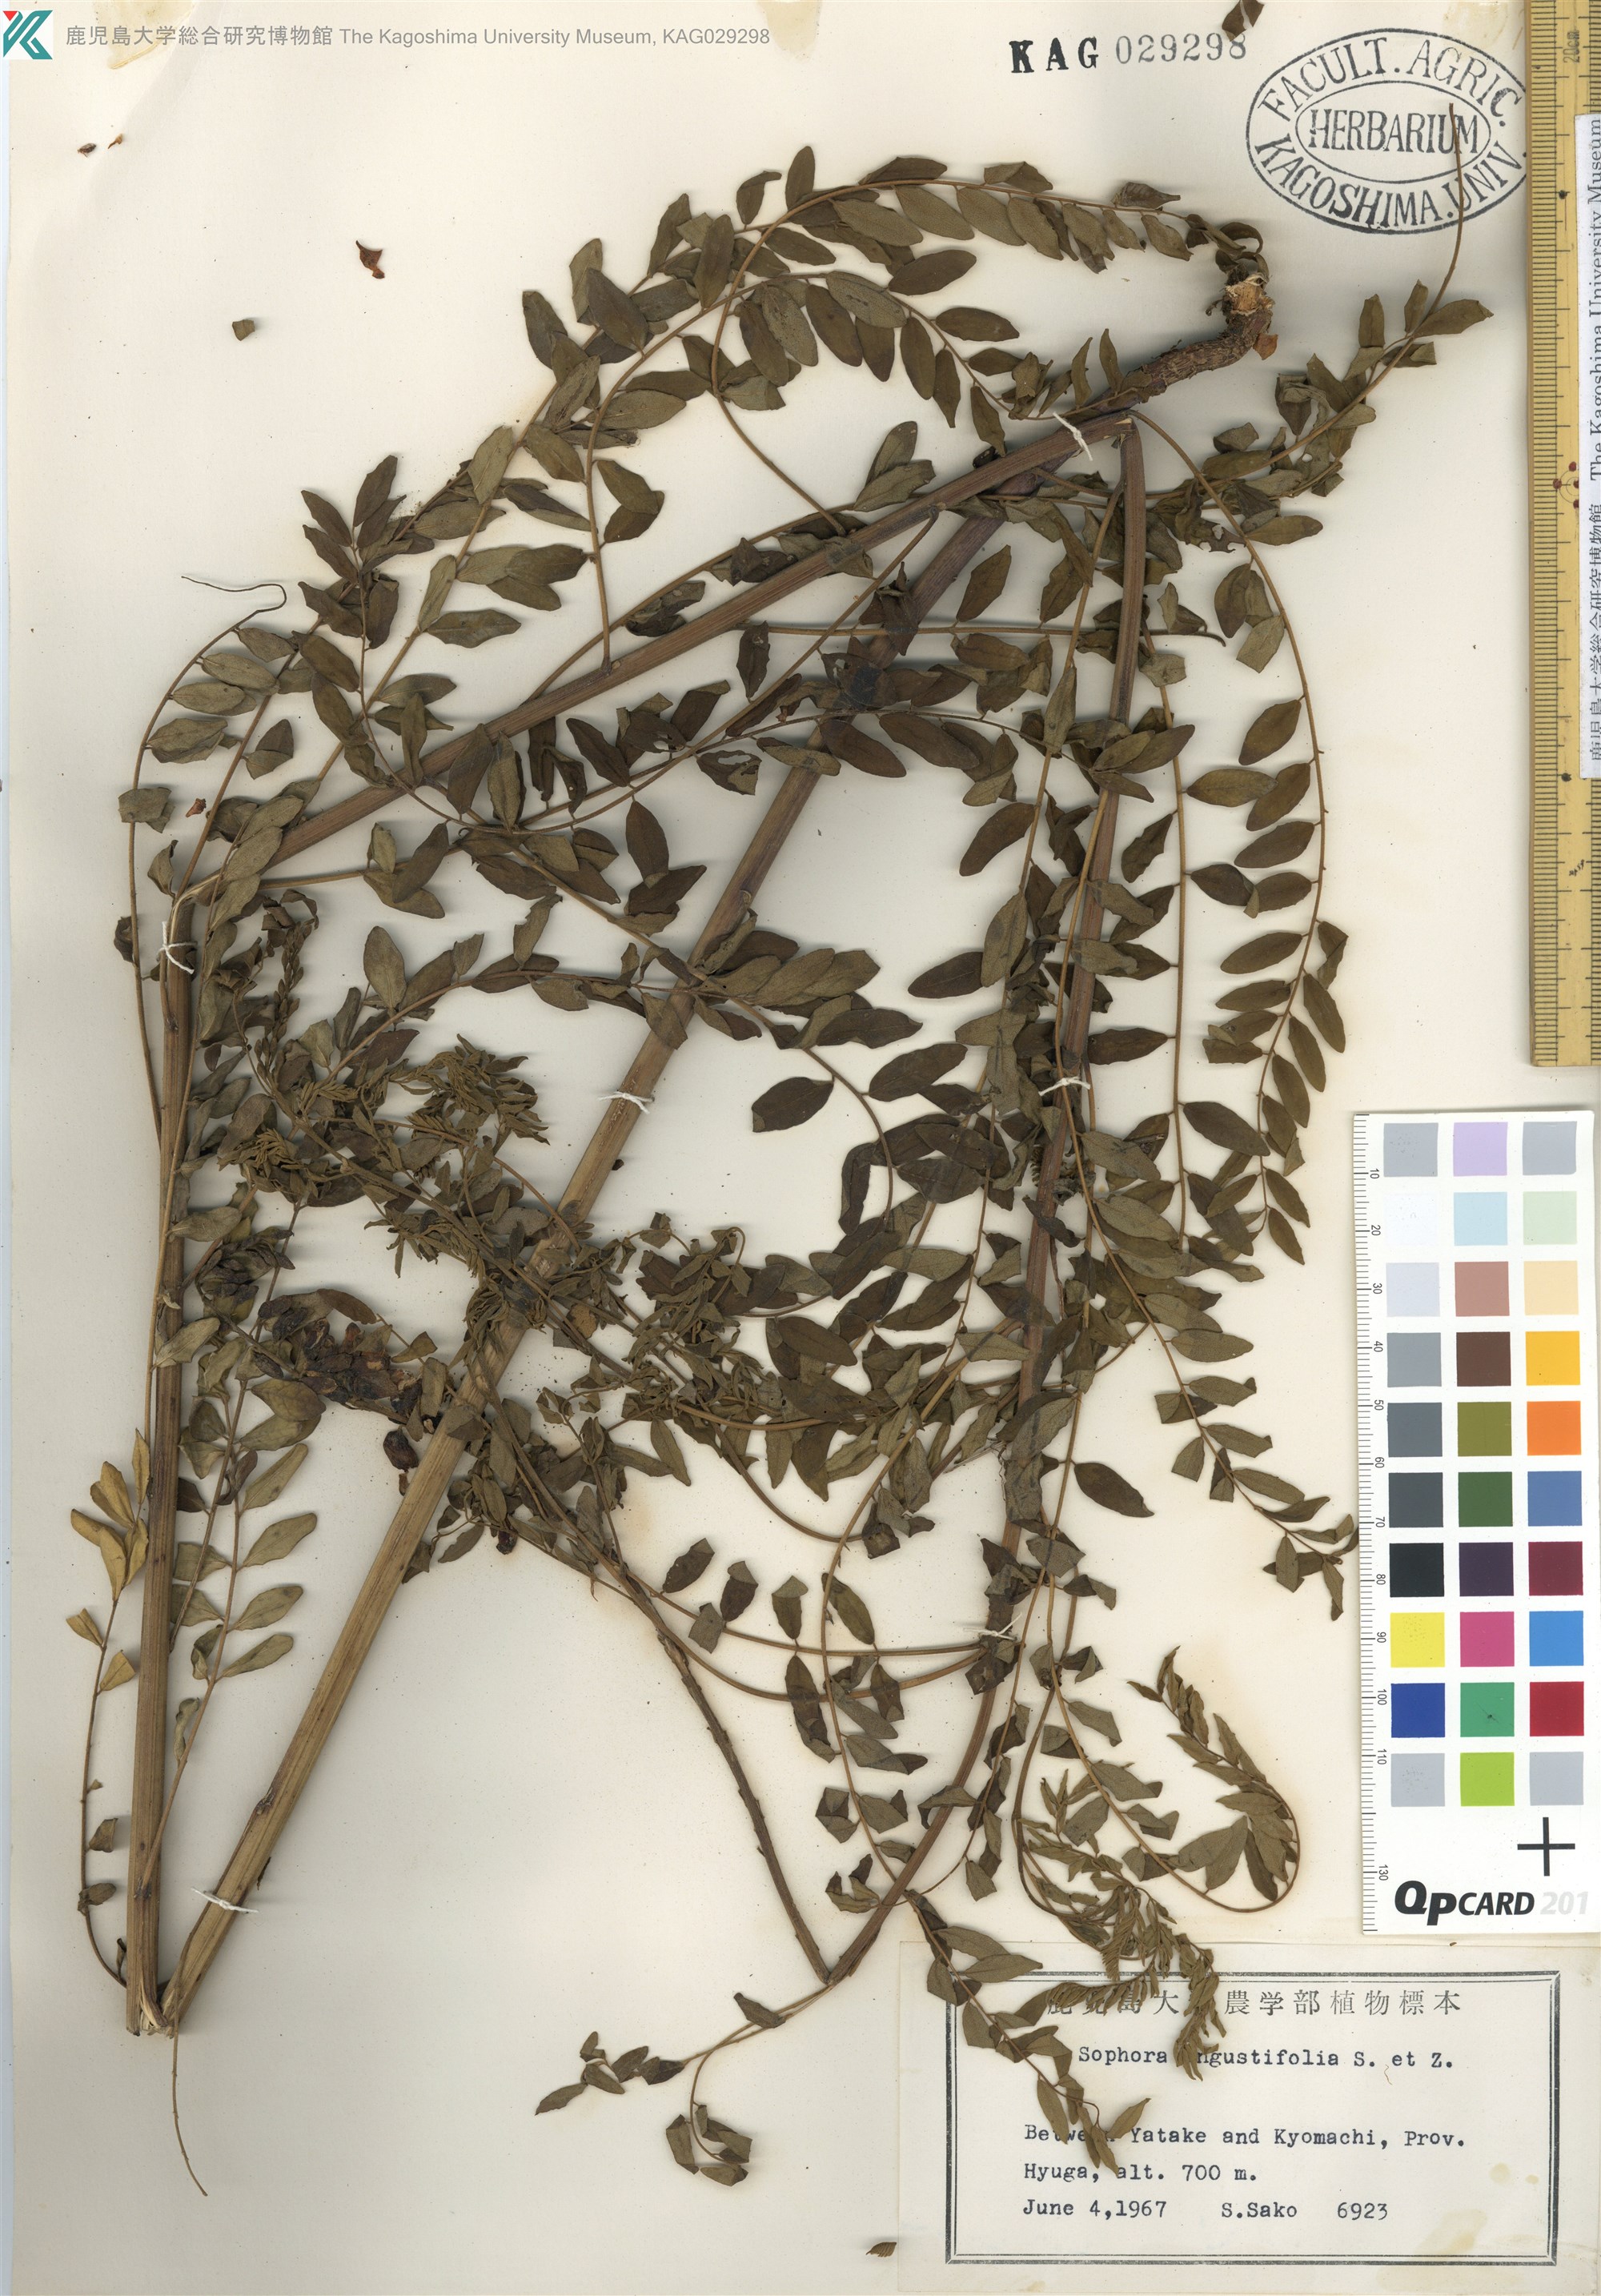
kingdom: Plantae
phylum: Tracheophyta
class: Magnoliopsida
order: Fabales
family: Fabaceae
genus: Sophora
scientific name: Sophora flavescens
